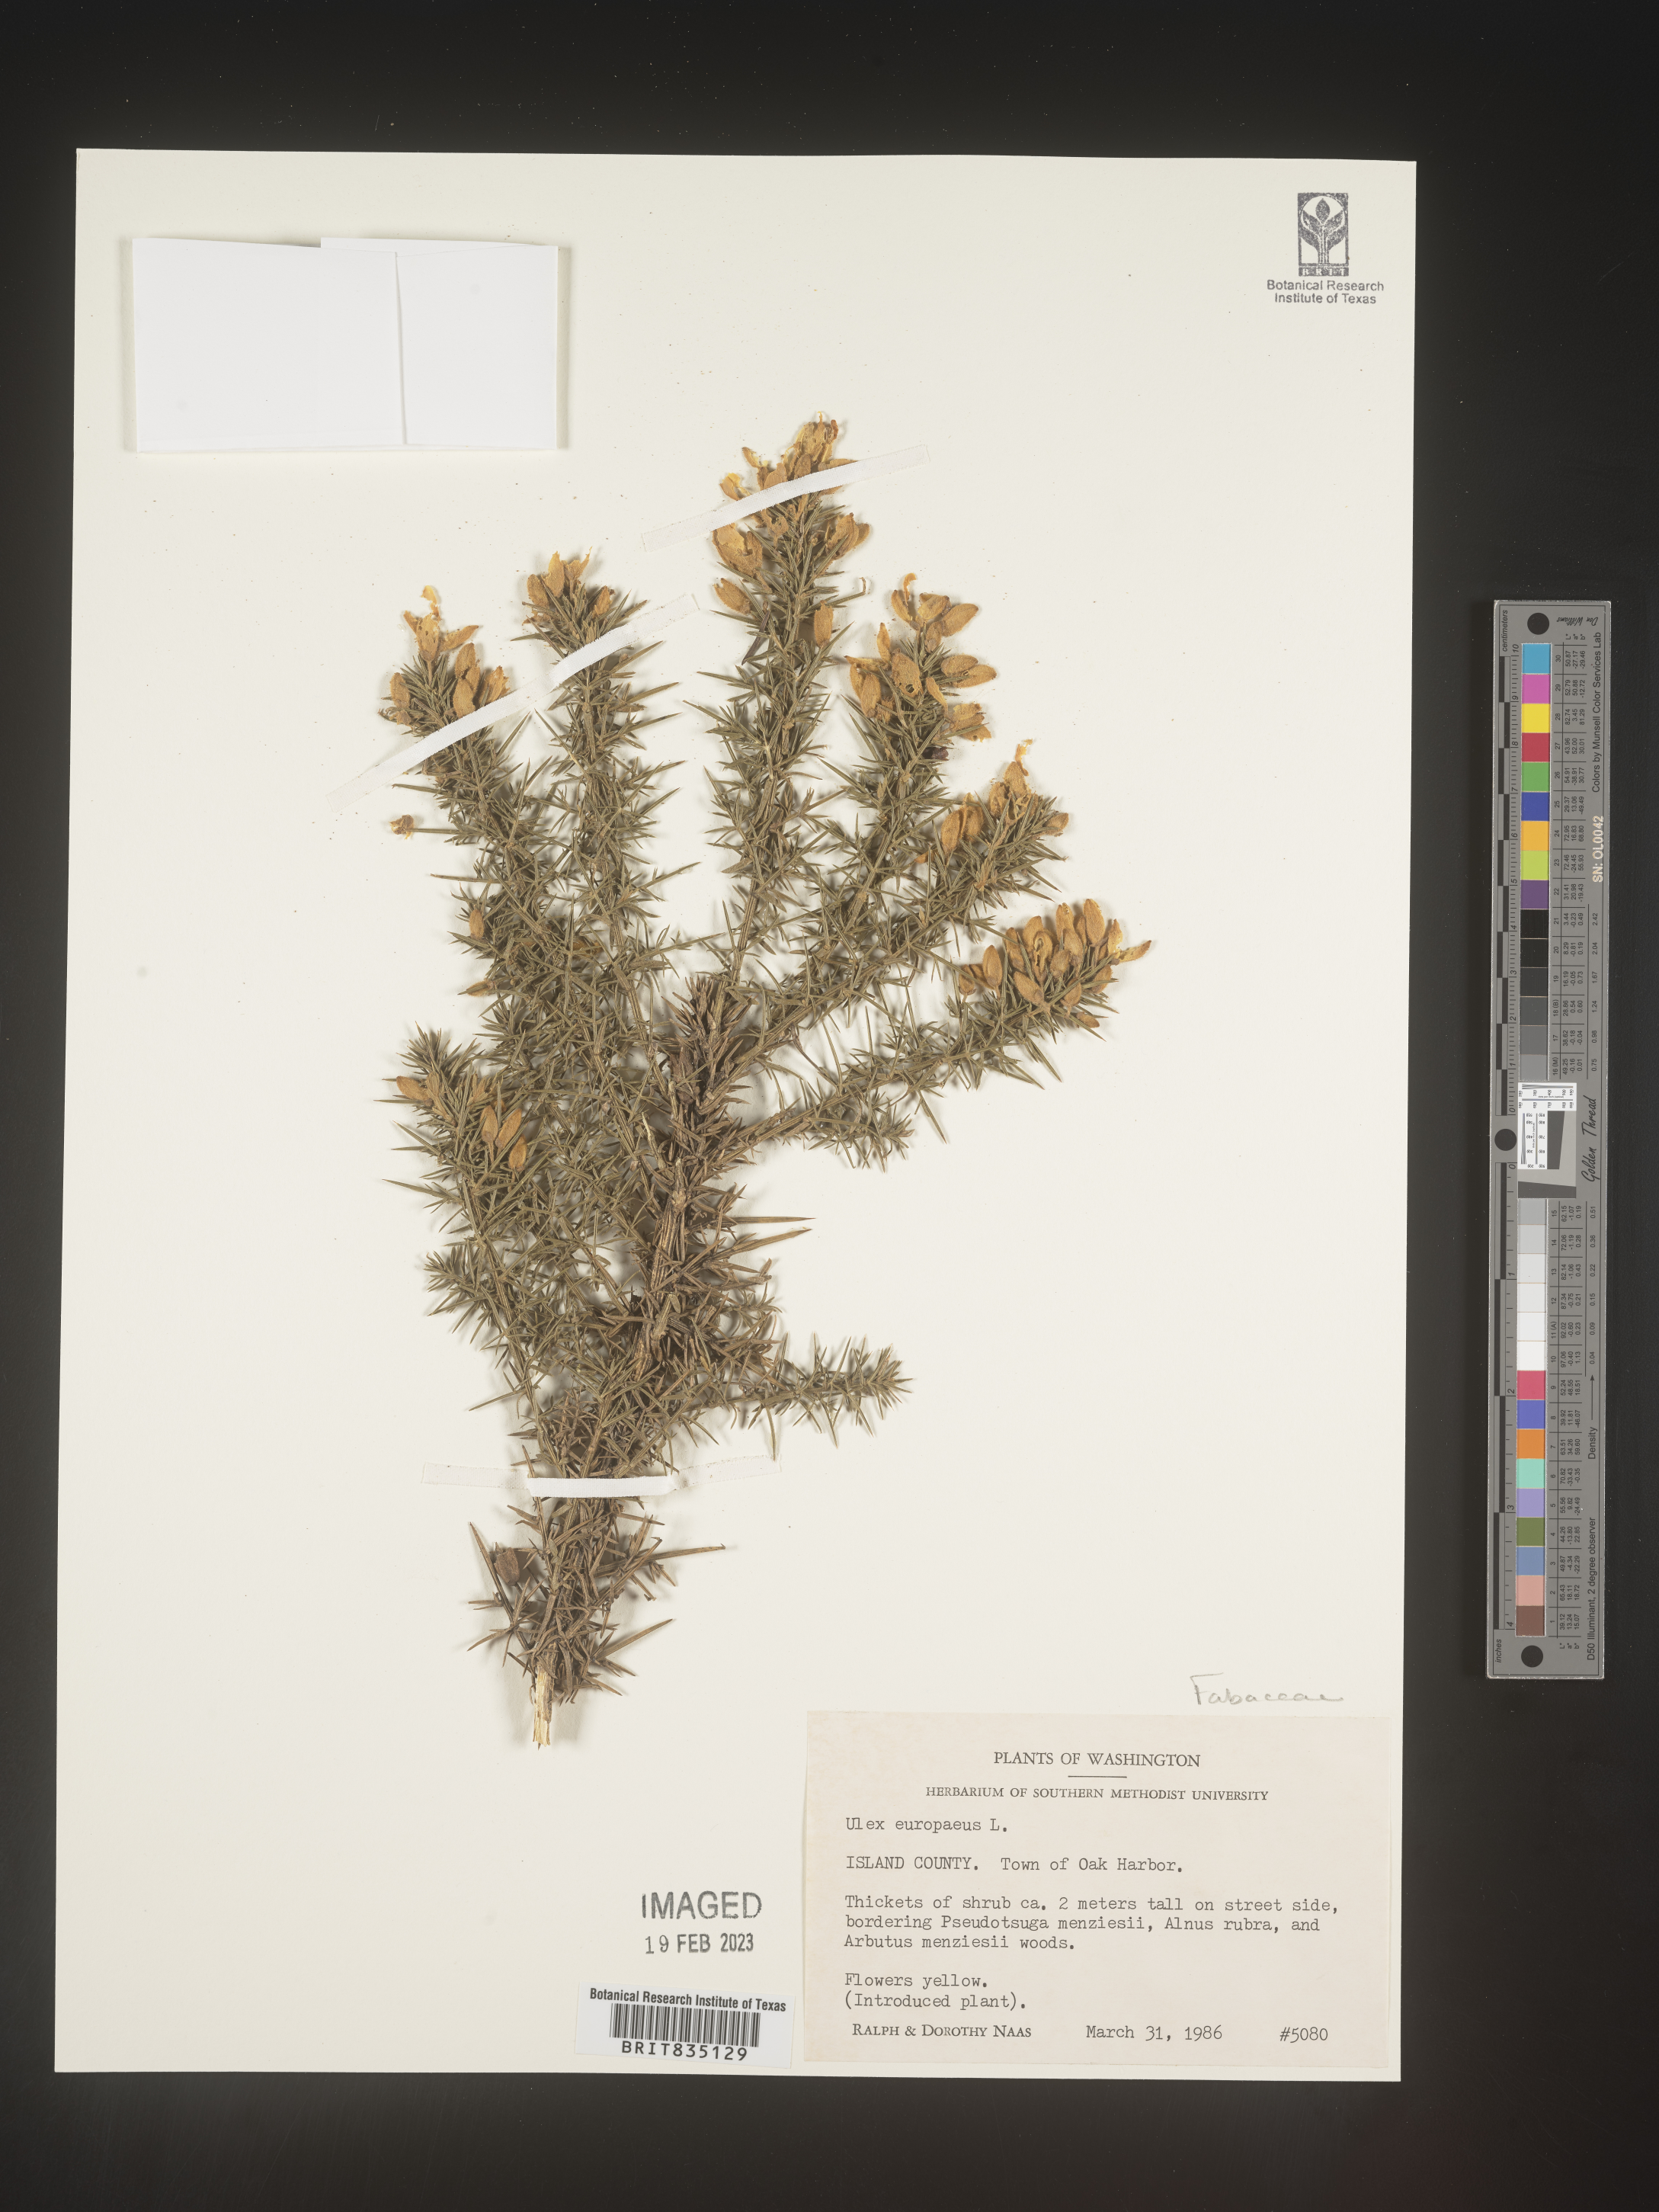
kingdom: Plantae
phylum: Tracheophyta
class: Magnoliopsida
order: Fabales
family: Fabaceae
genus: Ulex
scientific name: Ulex
